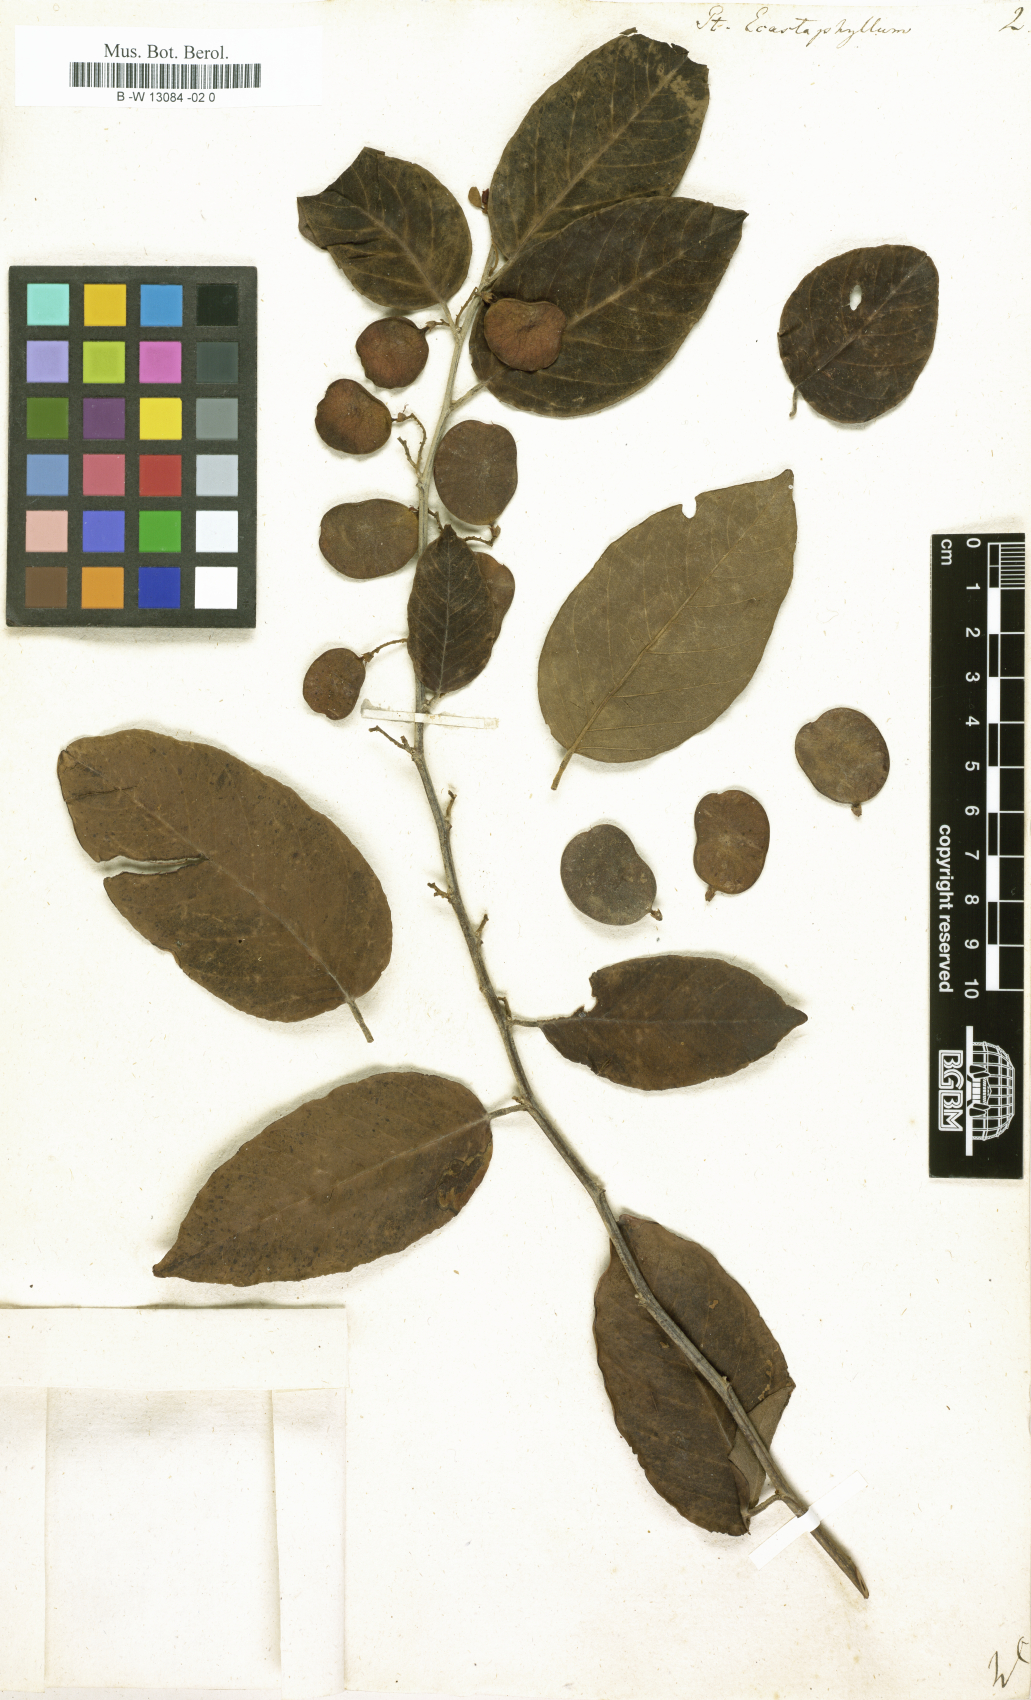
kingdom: Plantae
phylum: Tracheophyta
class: Magnoliopsida
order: Fabales
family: Fabaceae
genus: Pterocarpus
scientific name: Pterocarpus
